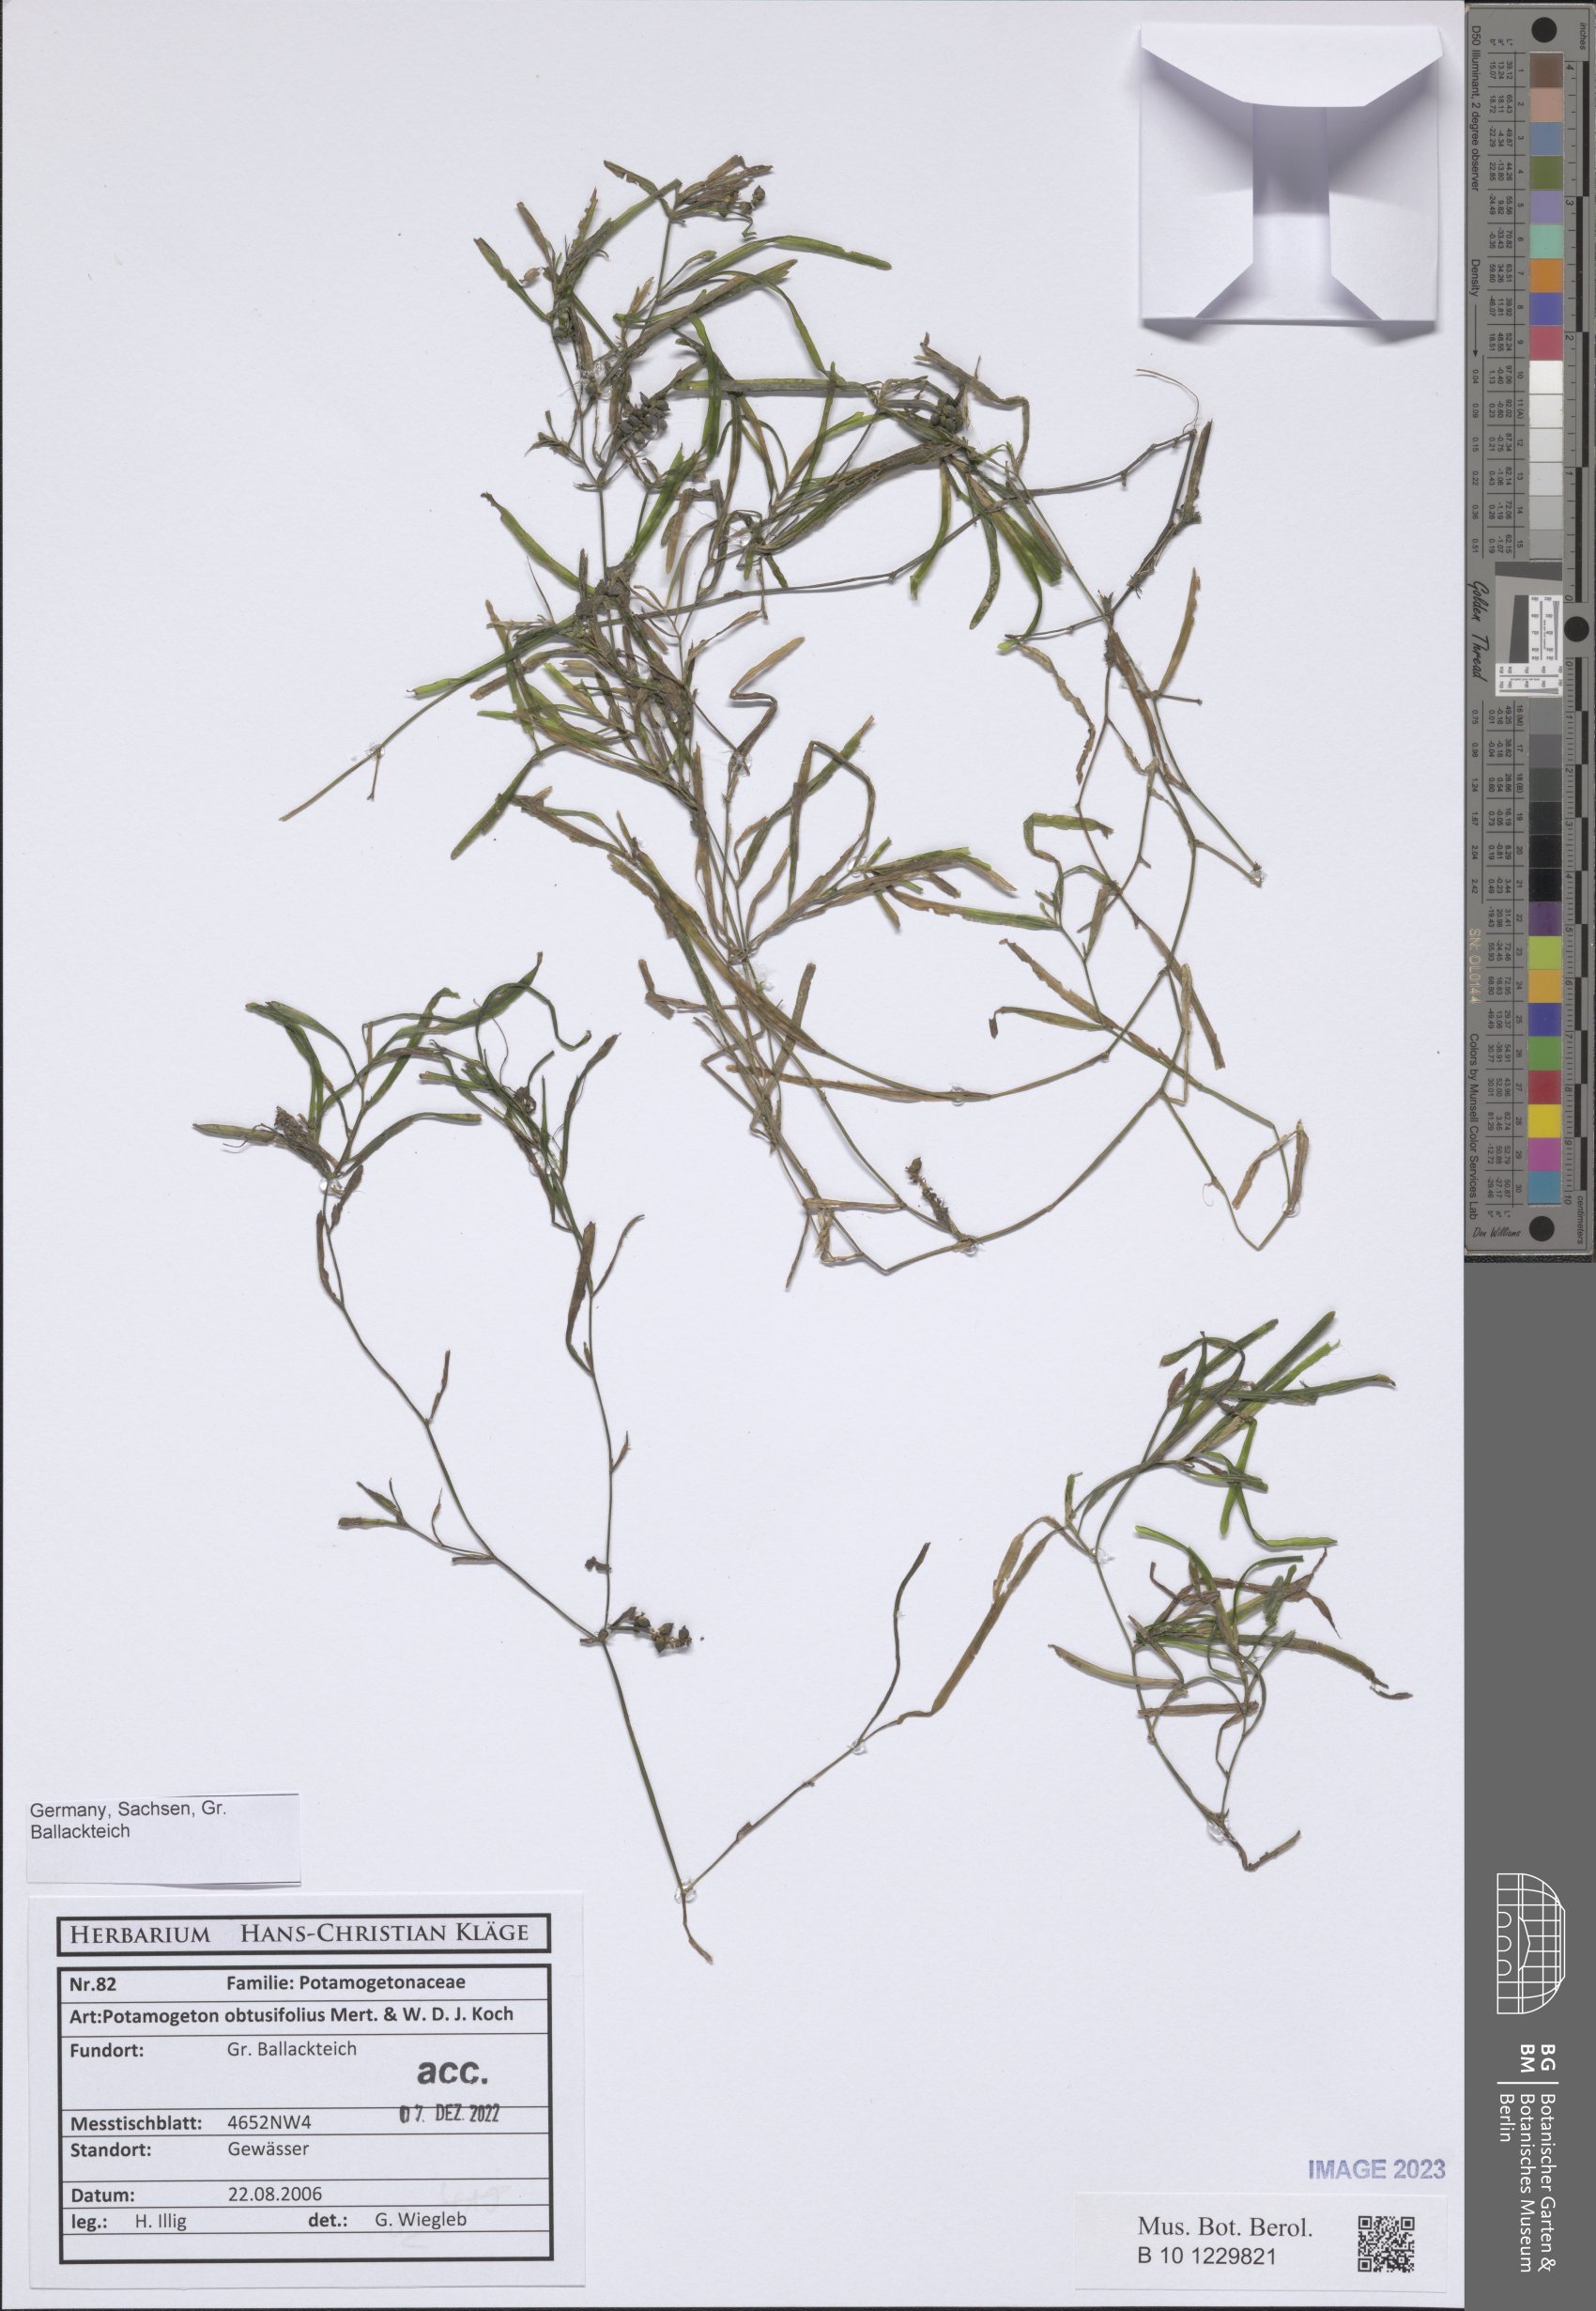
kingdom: Plantae
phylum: Tracheophyta
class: Liliopsida
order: Alismatales
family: Potamogetonaceae
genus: Potamogeton
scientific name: Potamogeton obtusifolius
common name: Blunt-leaved pondweed
